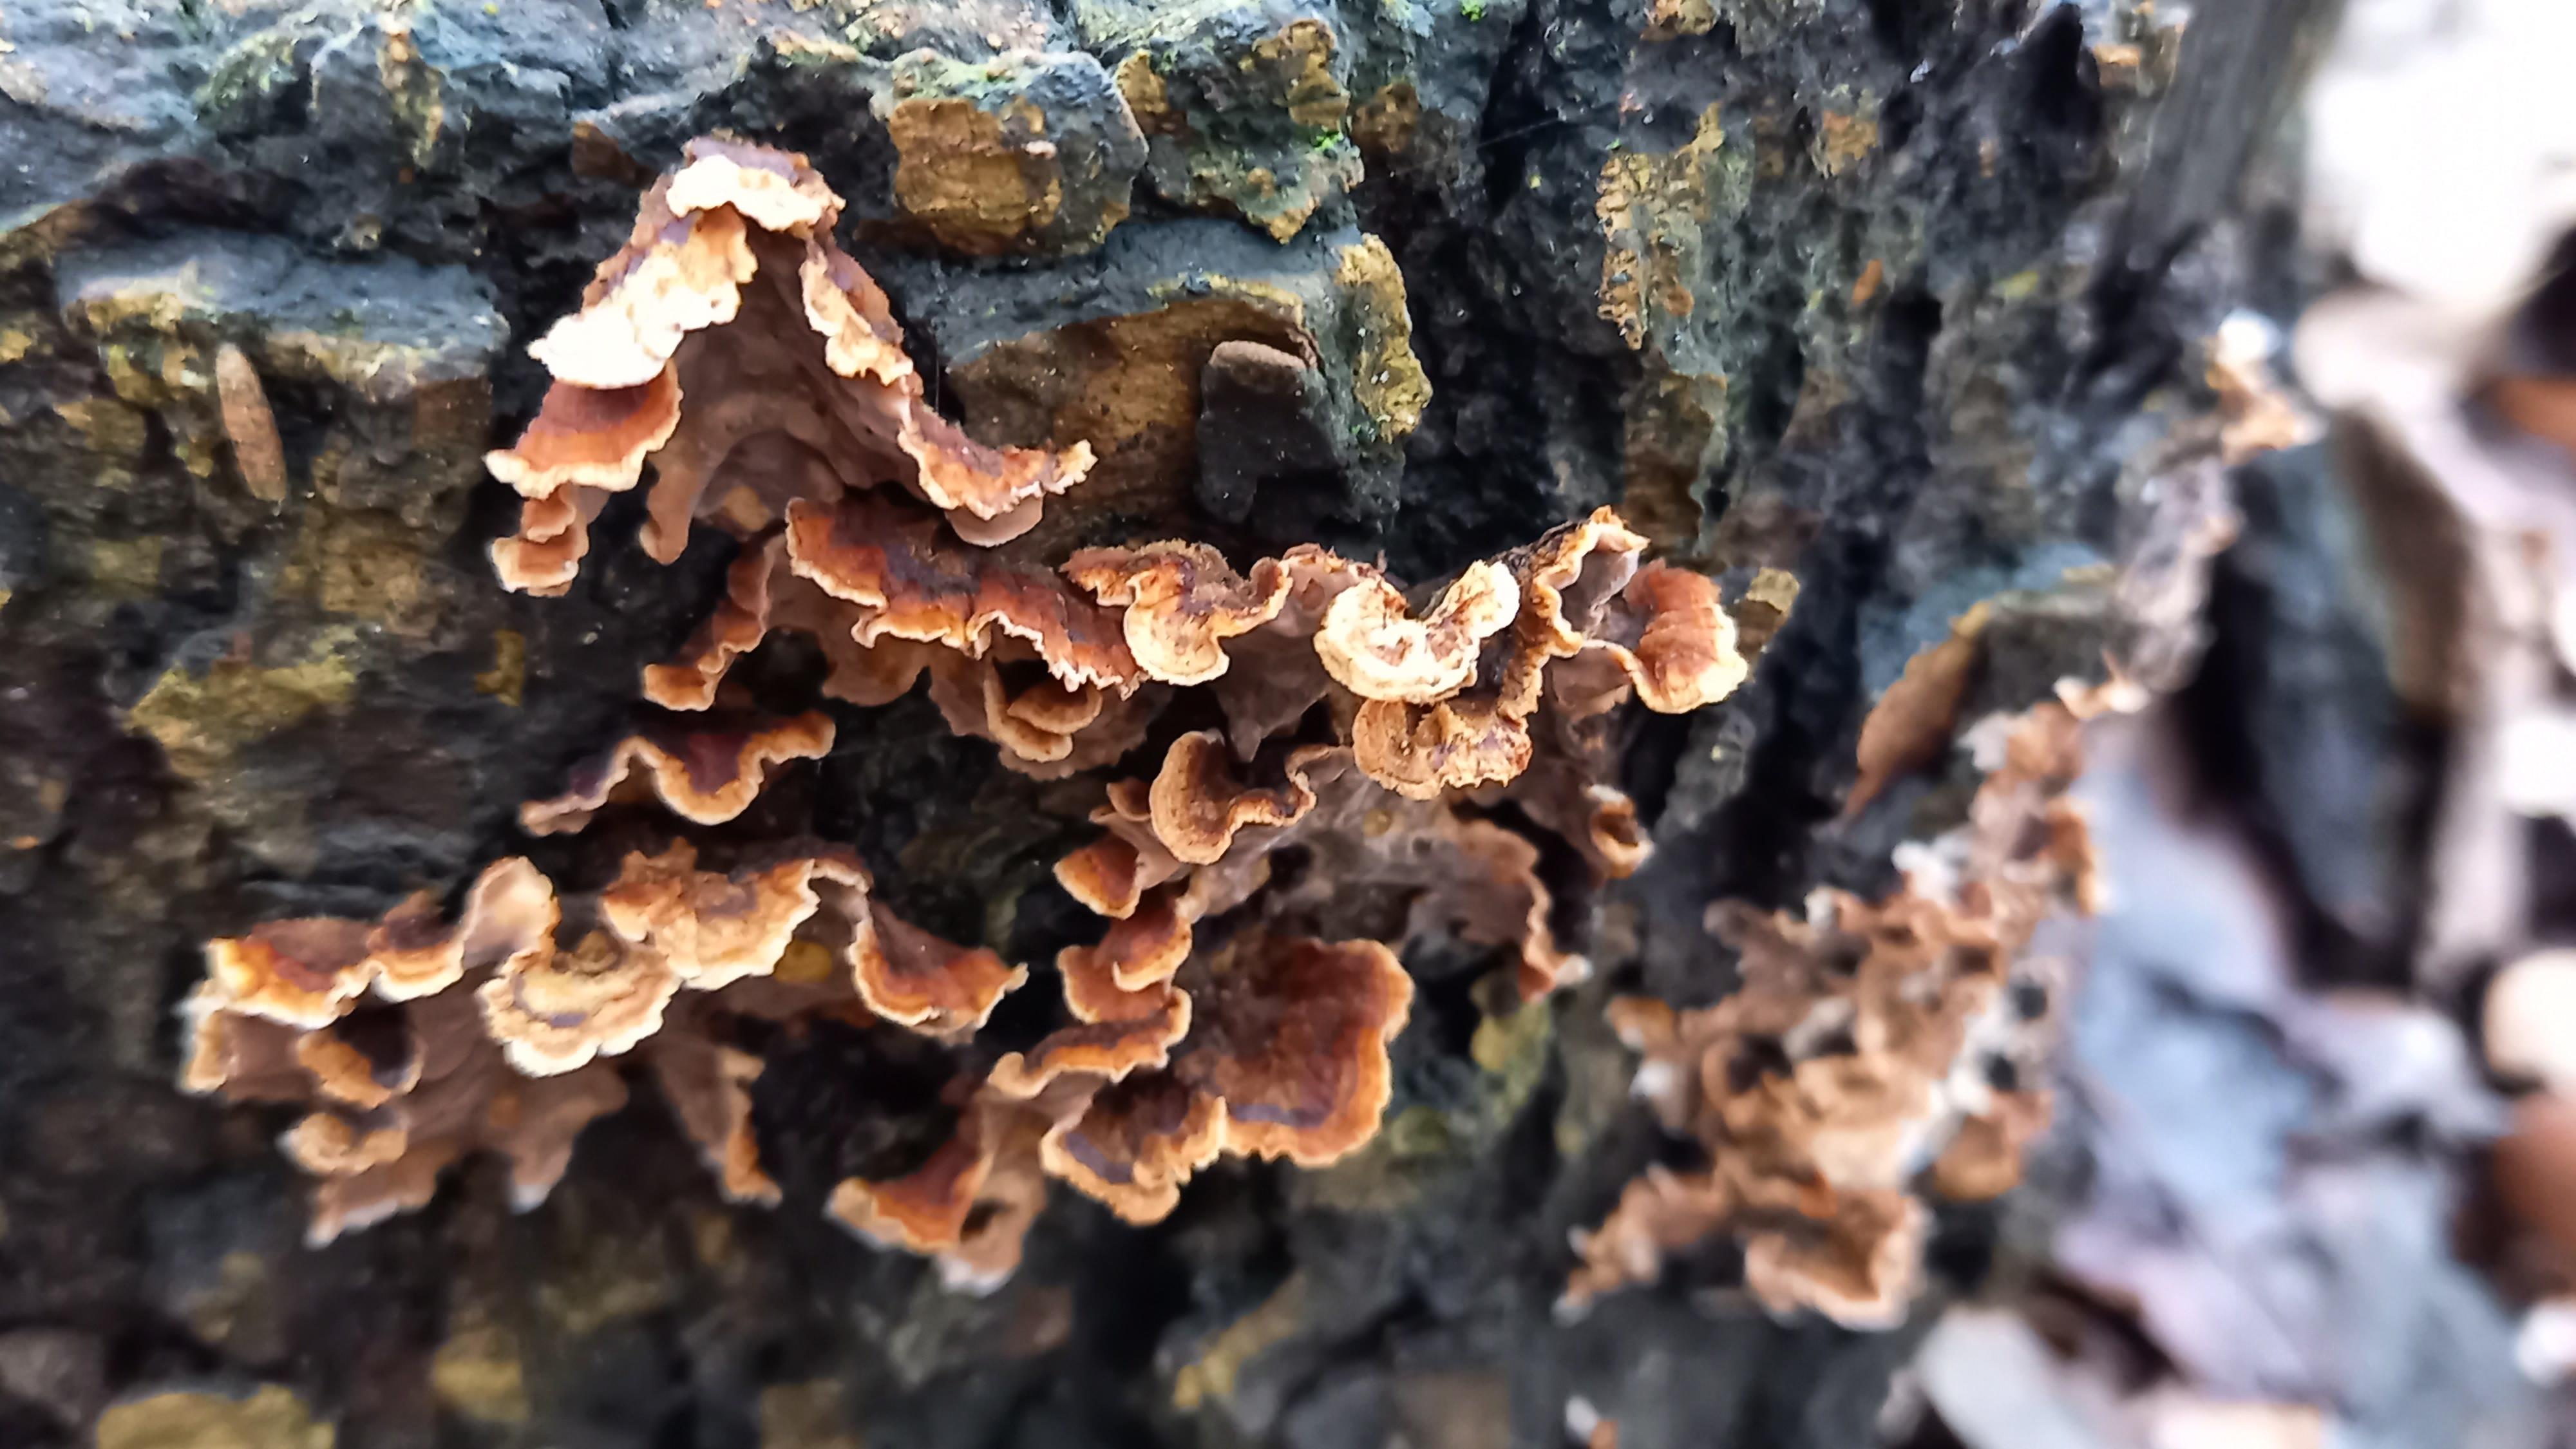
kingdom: Fungi
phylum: Basidiomycota
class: Agaricomycetes
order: Russulales
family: Stereaceae
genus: Stereum
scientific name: Stereum hirsutum
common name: håret lædersvamp
